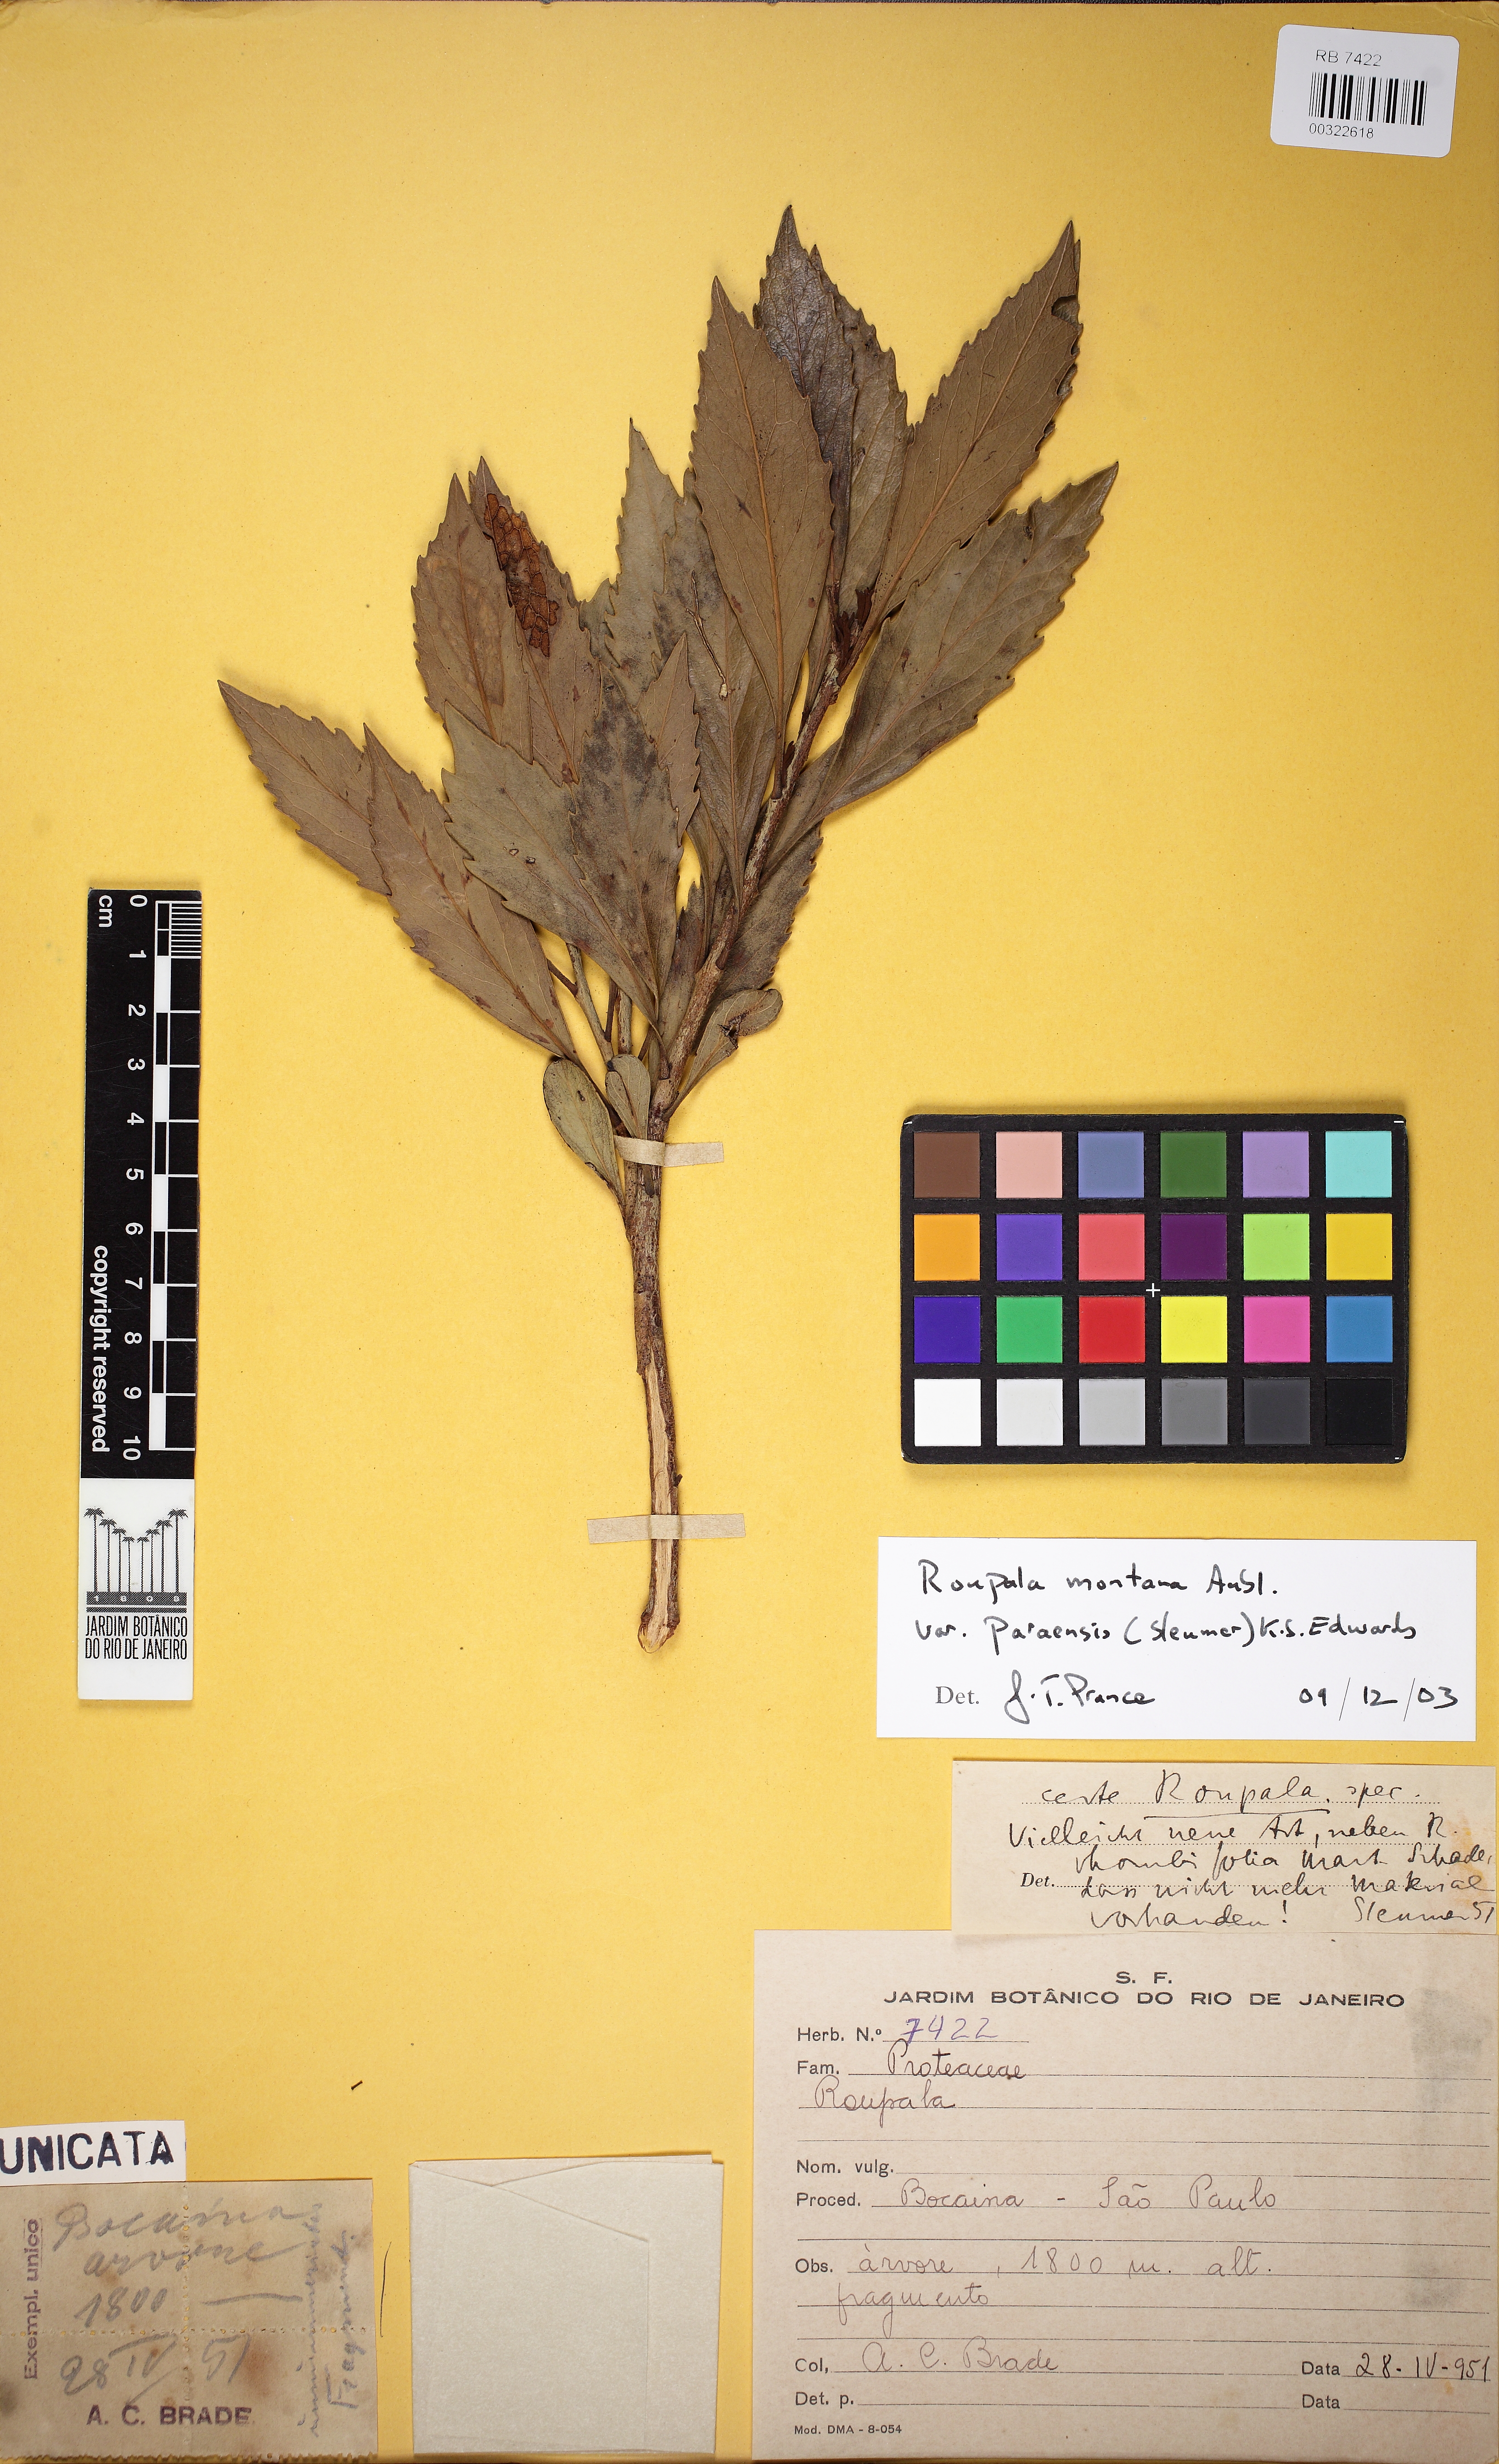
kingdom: Plantae
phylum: Tracheophyta
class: Magnoliopsida
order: Proteales
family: Proteaceae
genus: Roupala
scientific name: Roupala montana
